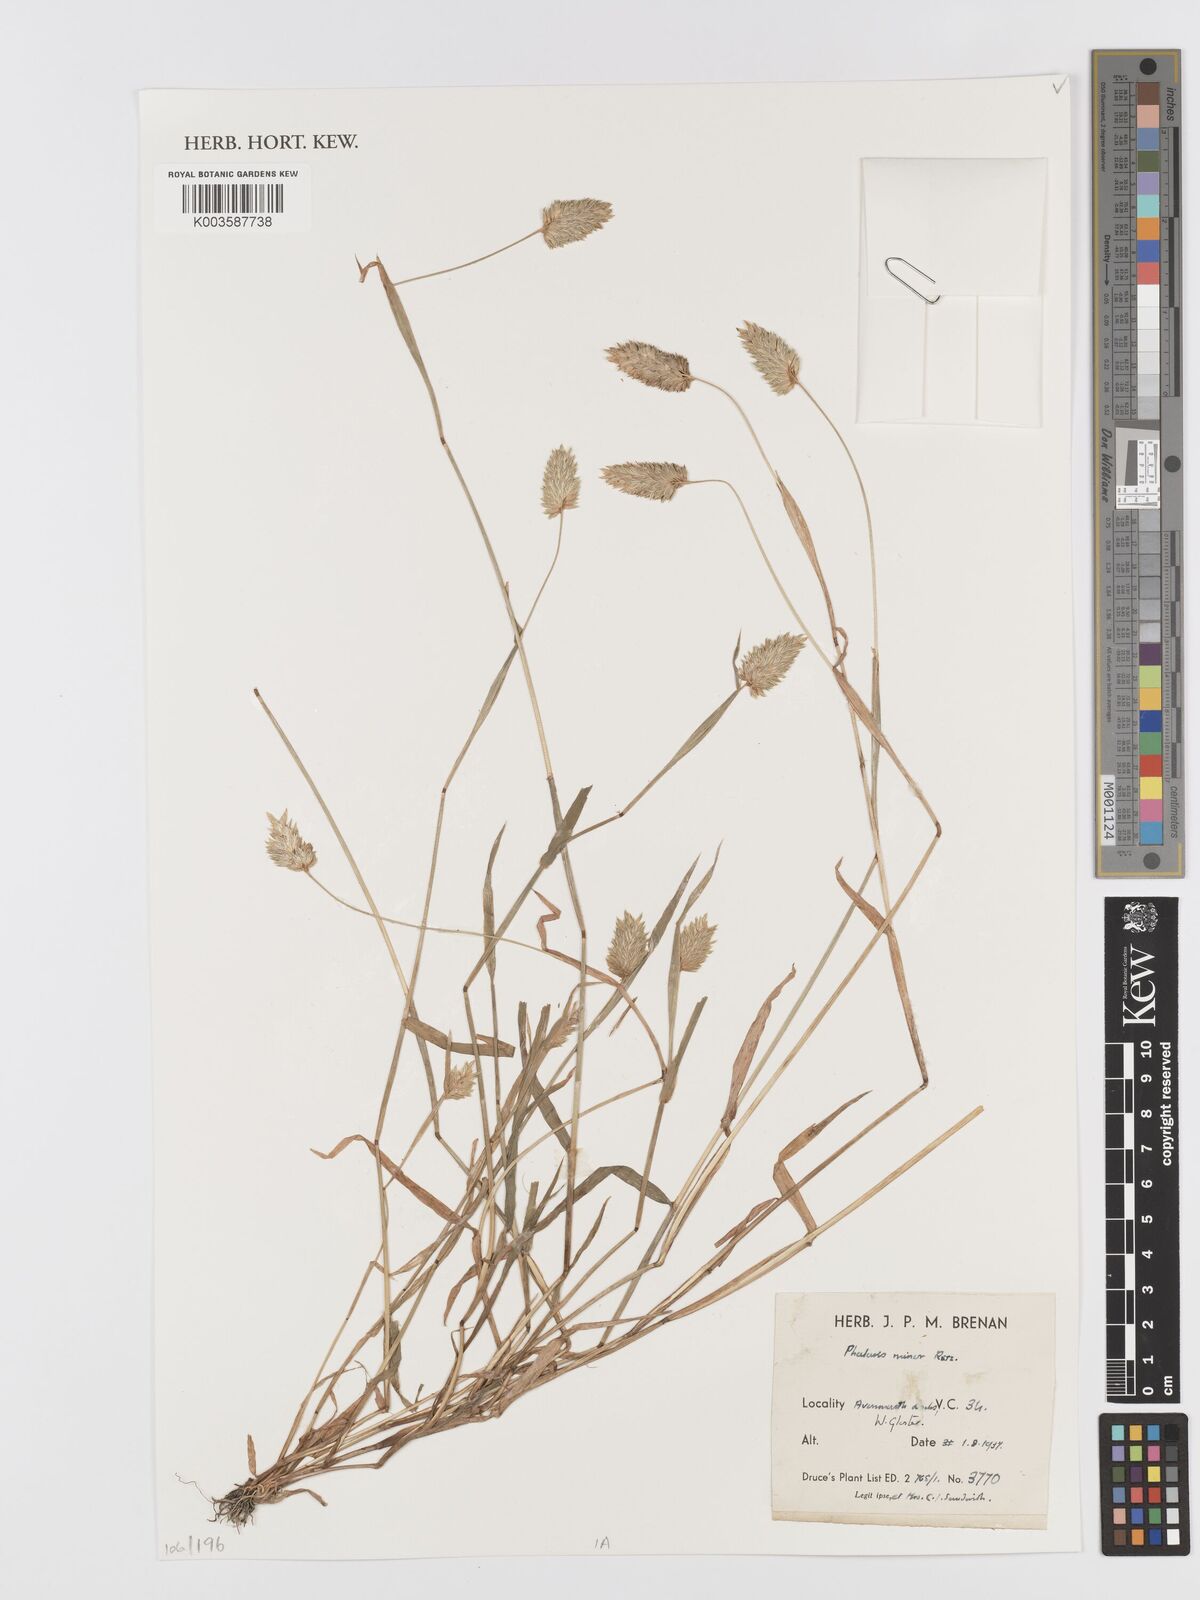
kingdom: Plantae
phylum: Tracheophyta
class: Liliopsida
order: Poales
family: Poaceae
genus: Phalaris
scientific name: Phalaris minor
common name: Littleseed canarygrass
